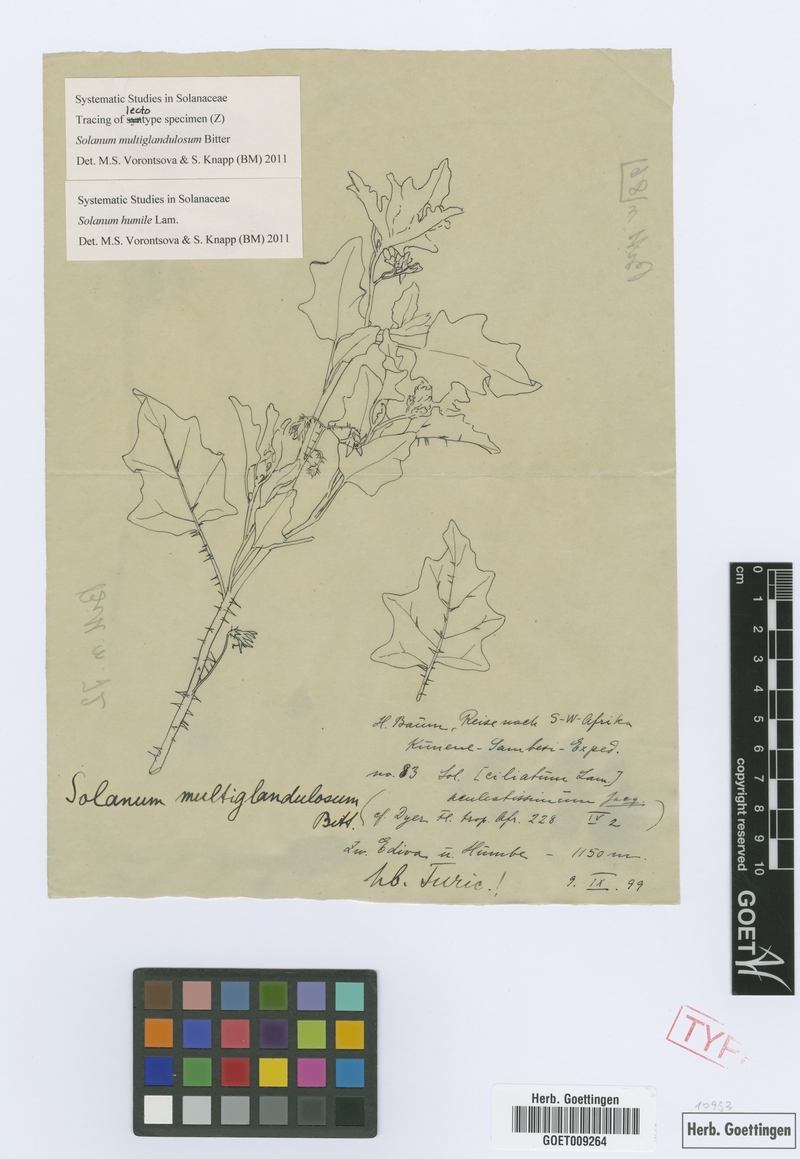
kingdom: Plantae
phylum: Tracheophyta
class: Magnoliopsida
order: Solanales
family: Solanaceae
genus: Solanum
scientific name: Solanum humile
